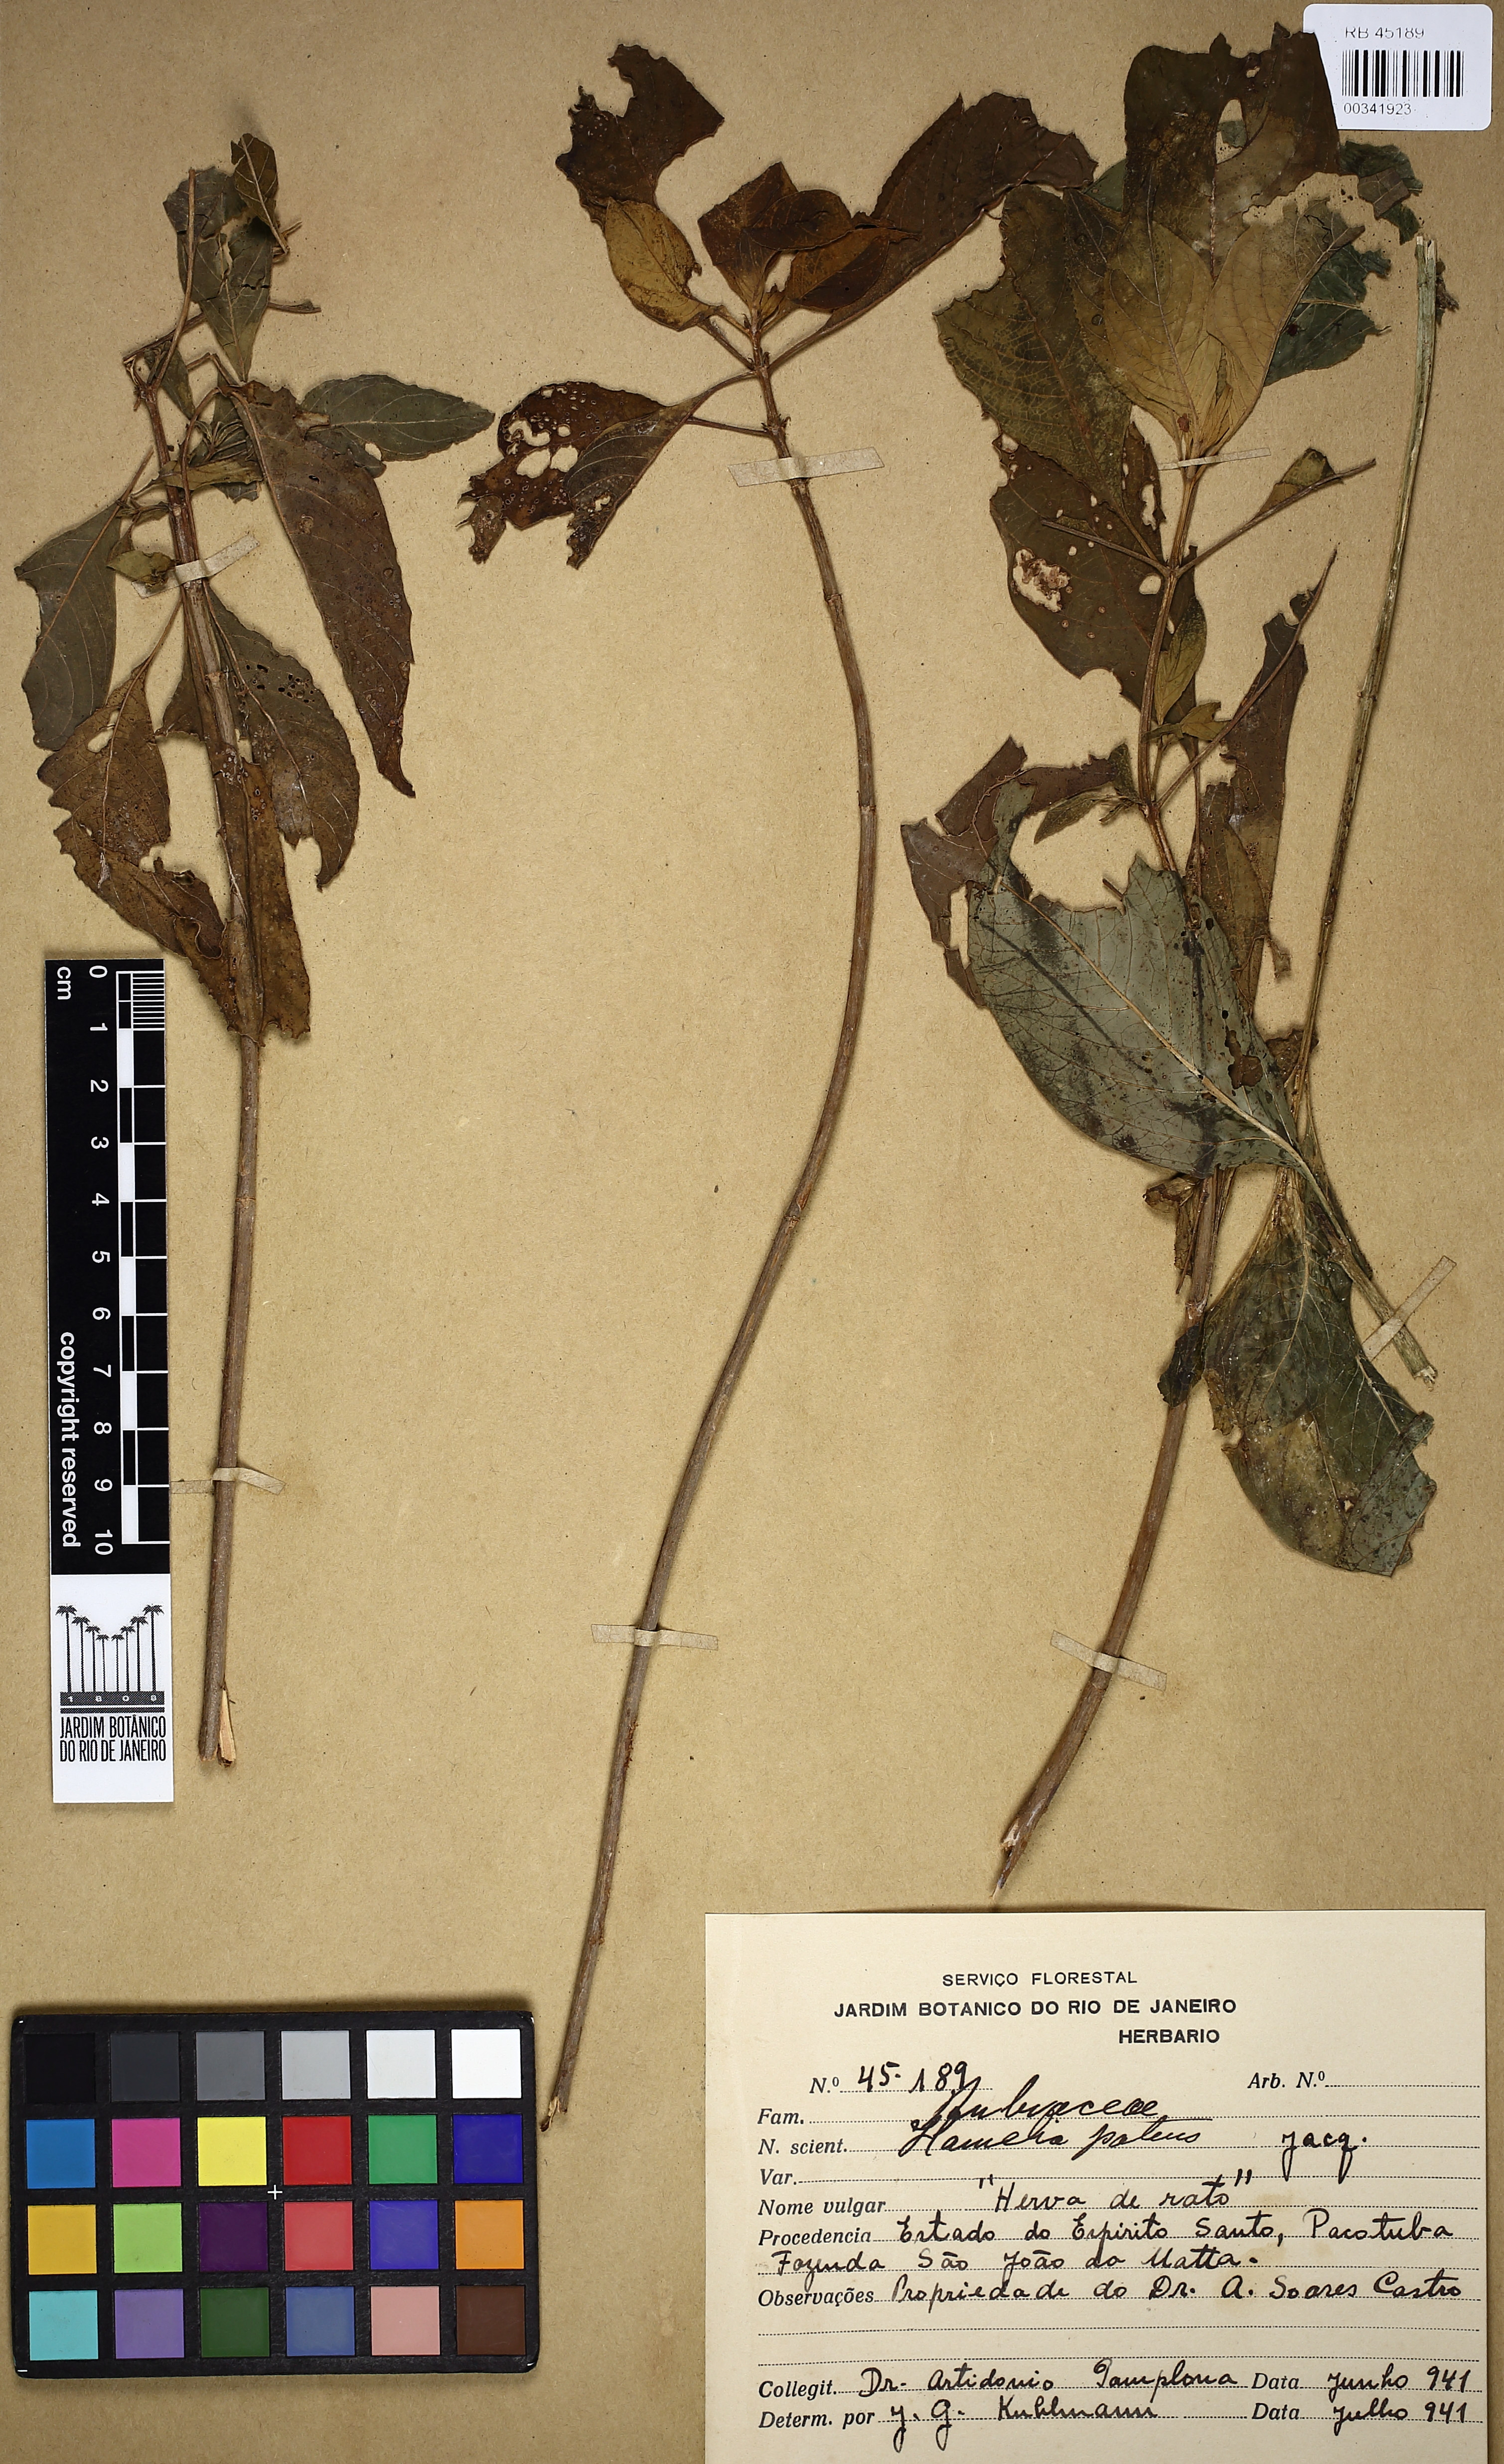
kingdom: Plantae
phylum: Tracheophyta
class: Magnoliopsida
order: Gentianales
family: Rubiaceae
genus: Hamelia
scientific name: Hamelia patens
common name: Redhead
